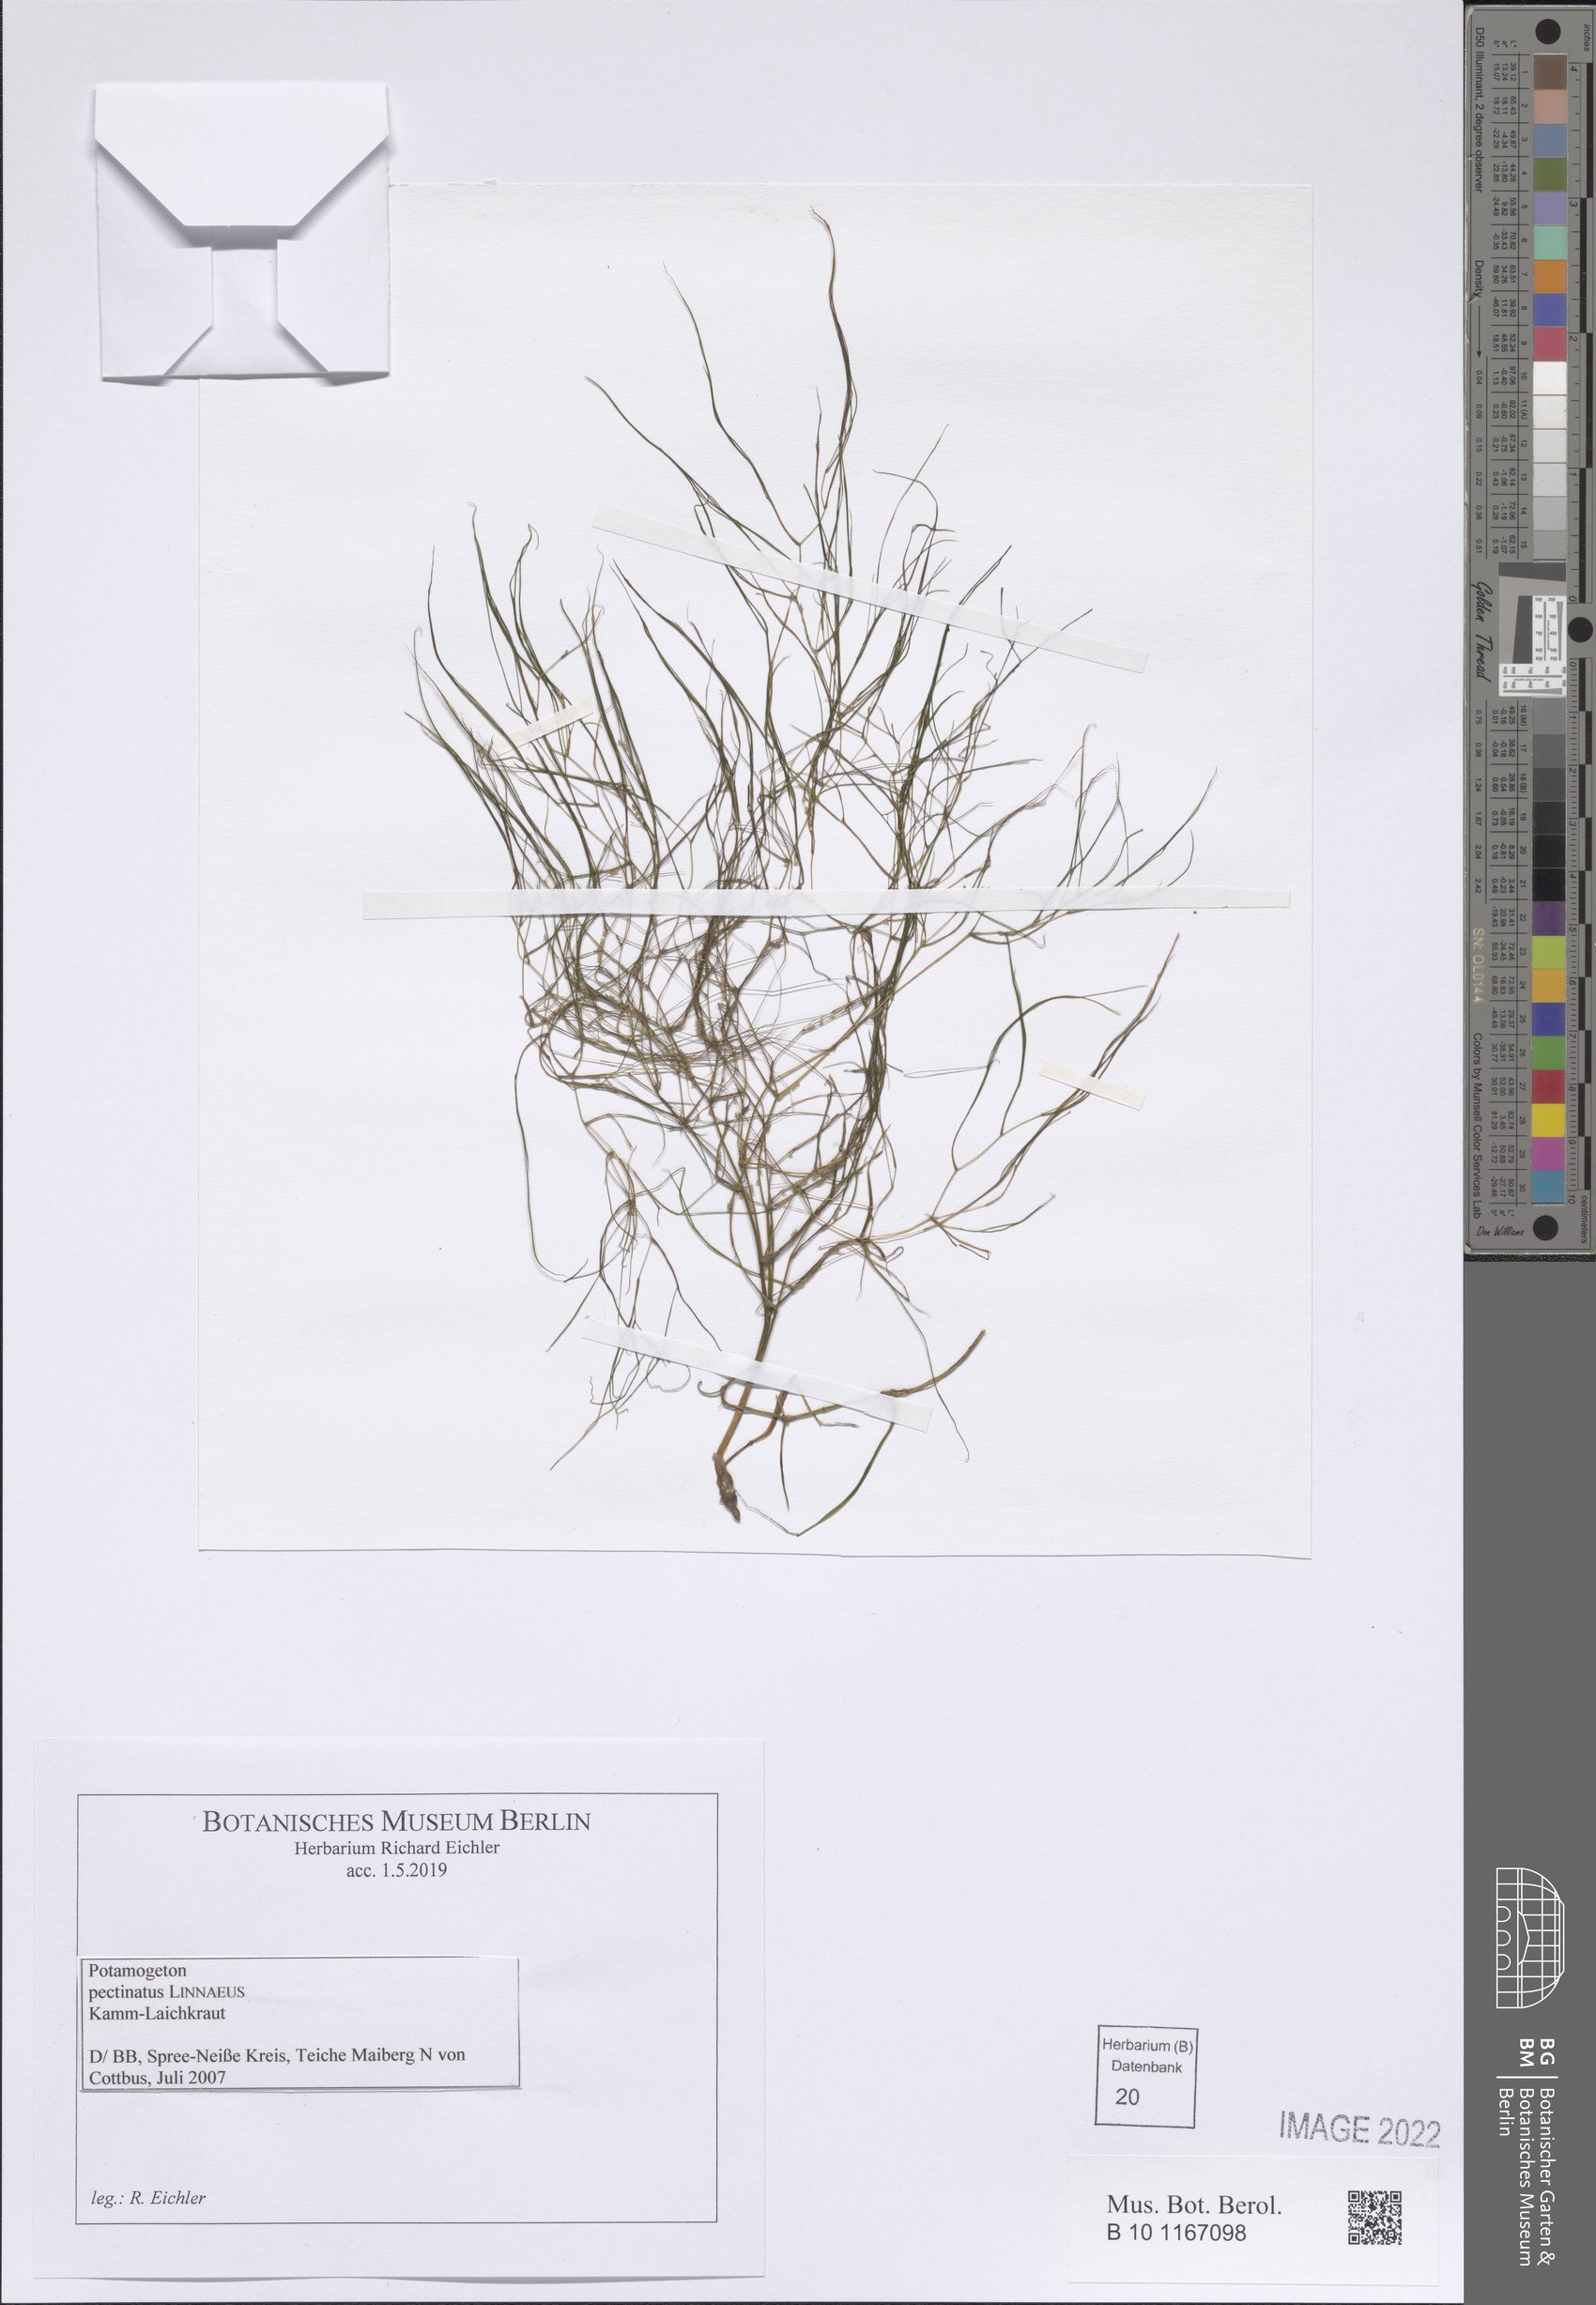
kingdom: Plantae
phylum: Tracheophyta
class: Liliopsida
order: Alismatales
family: Potamogetonaceae
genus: Stuckenia
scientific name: Stuckenia pectinata
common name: Sago pondweed
